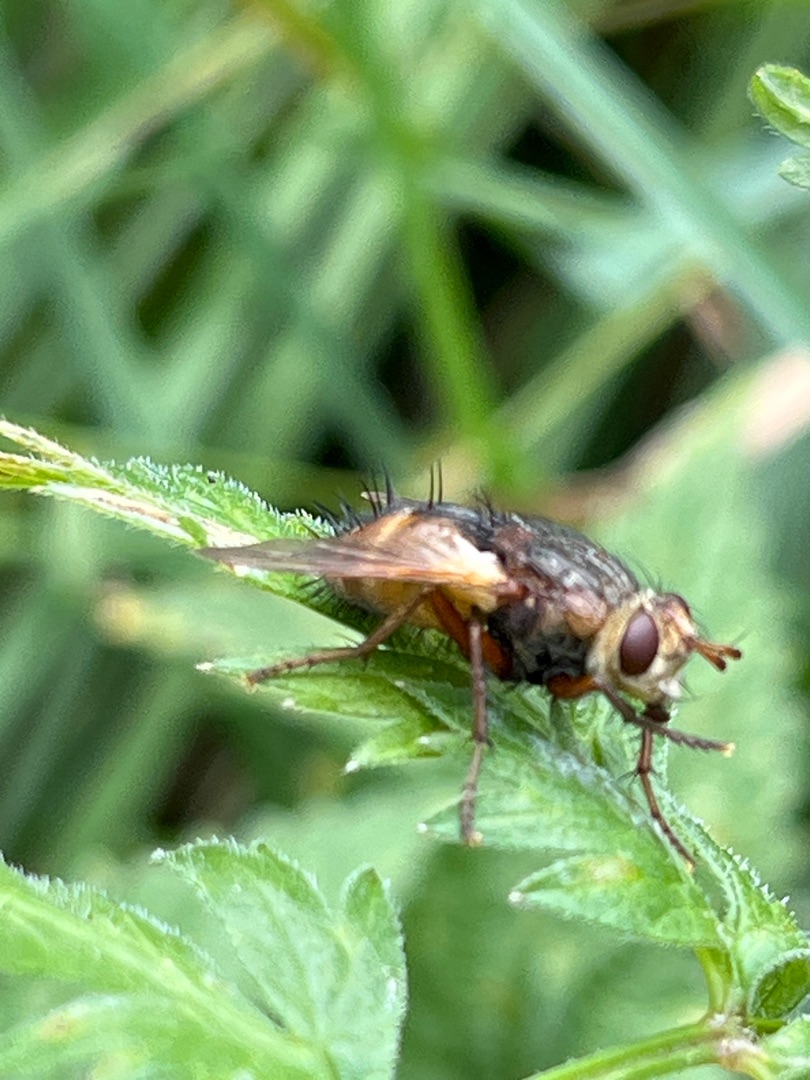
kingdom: Animalia
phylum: Arthropoda
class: Insecta
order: Diptera
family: Tachinidae
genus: Tachina
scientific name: Tachina fera
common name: Mellemfluen oskar
